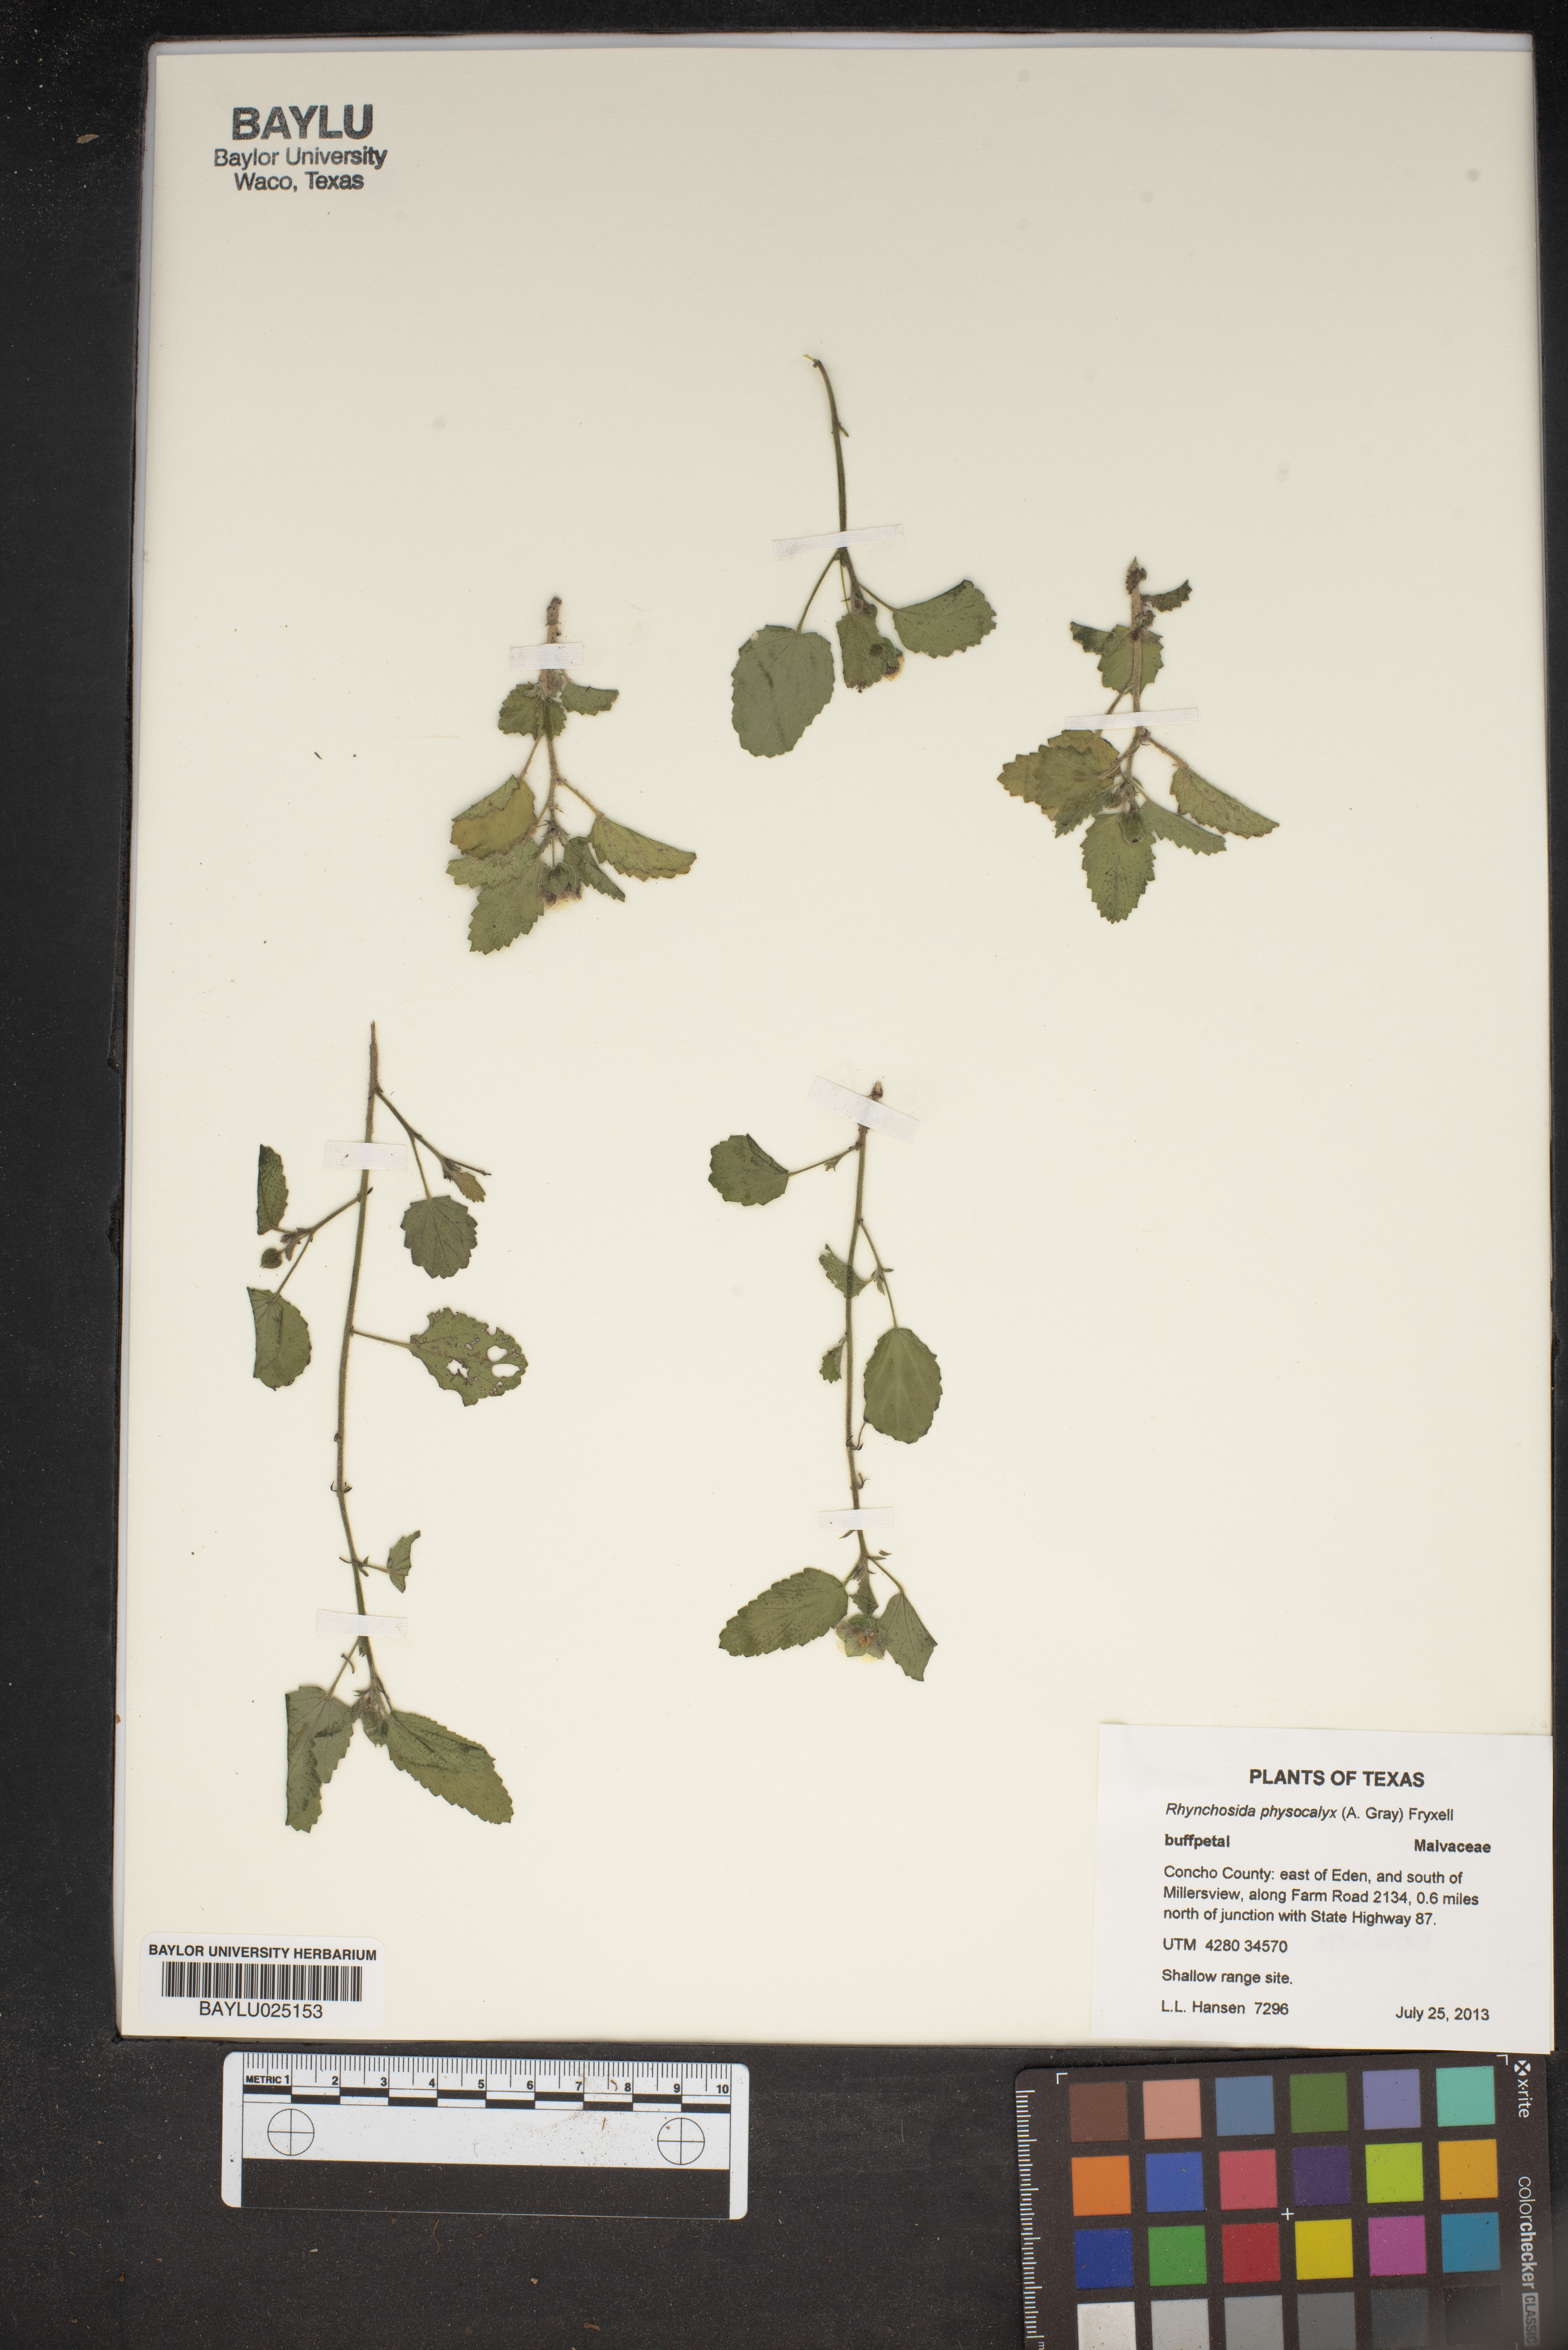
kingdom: Plantae
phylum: Tracheophyta
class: Magnoliopsida
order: Malvales
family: Malvaceae
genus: Rhynchosida
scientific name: Rhynchosida physocalyx
